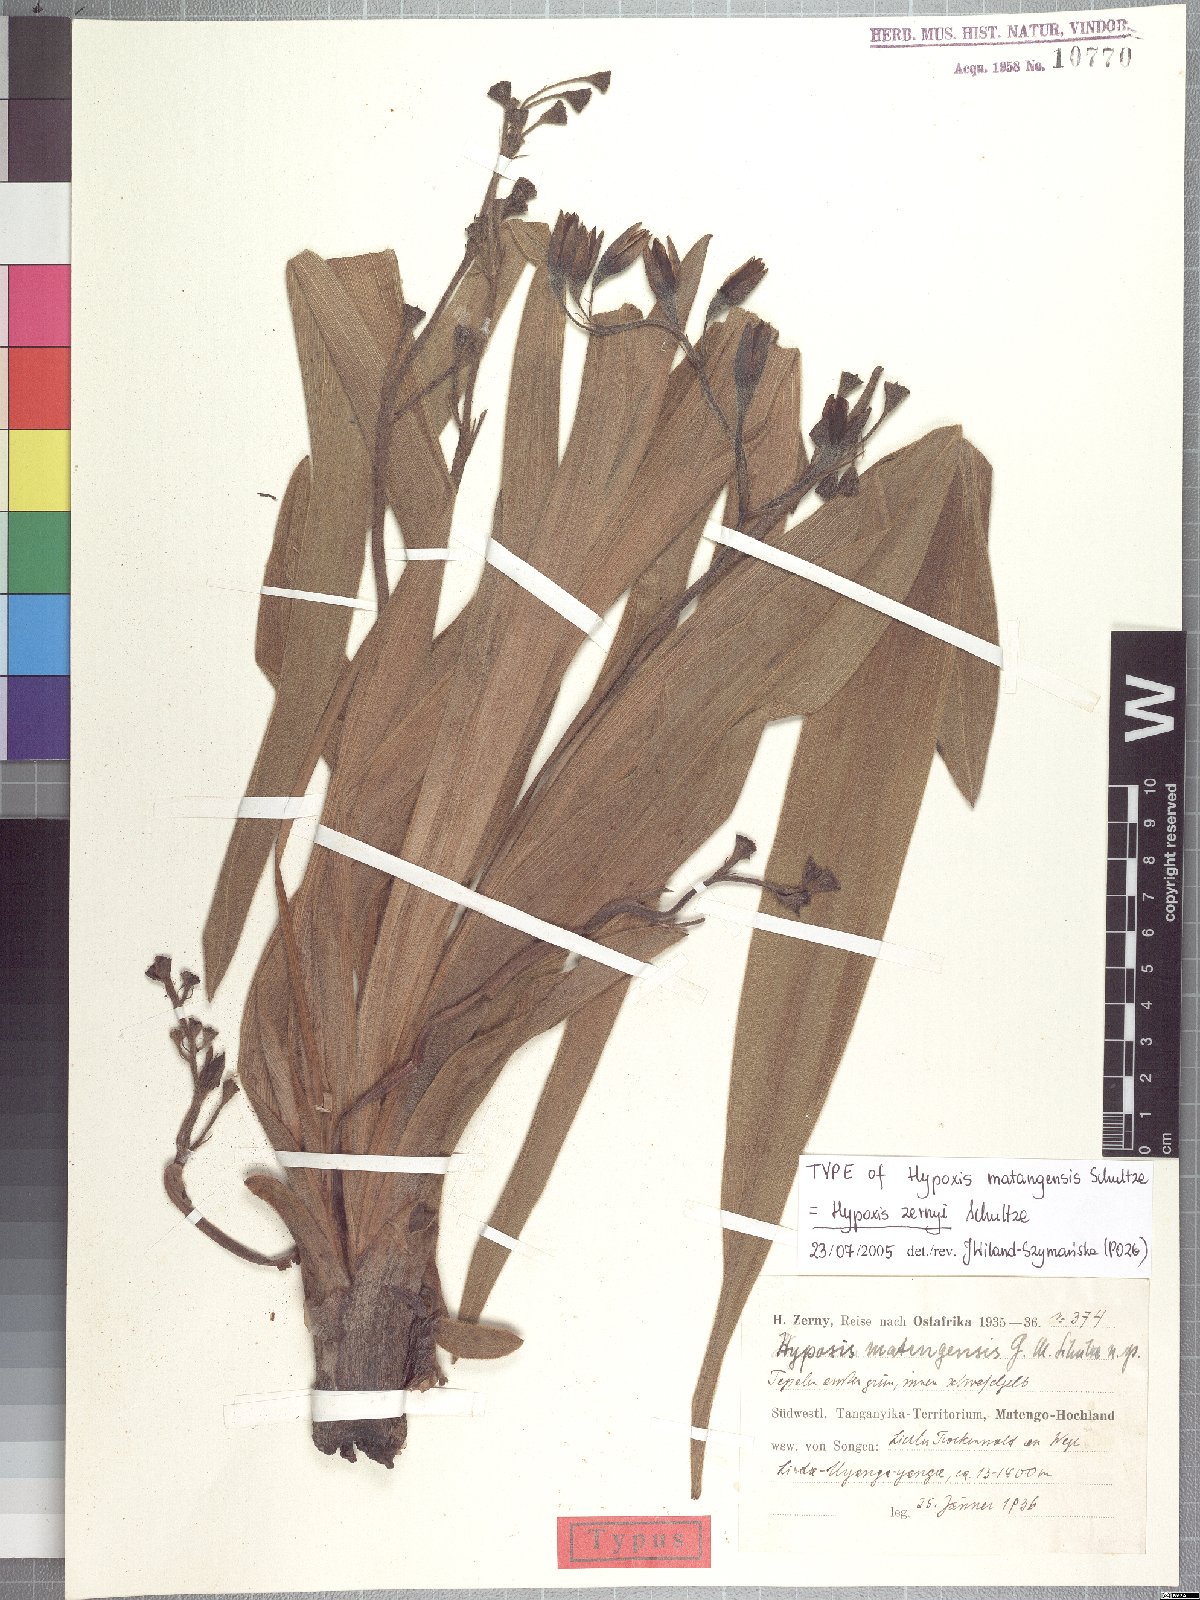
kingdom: Plantae
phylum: Tracheophyta
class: Liliopsida
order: Asparagales
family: Hypoxidaceae
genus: Hypoxis
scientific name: Hypoxis fischeri
